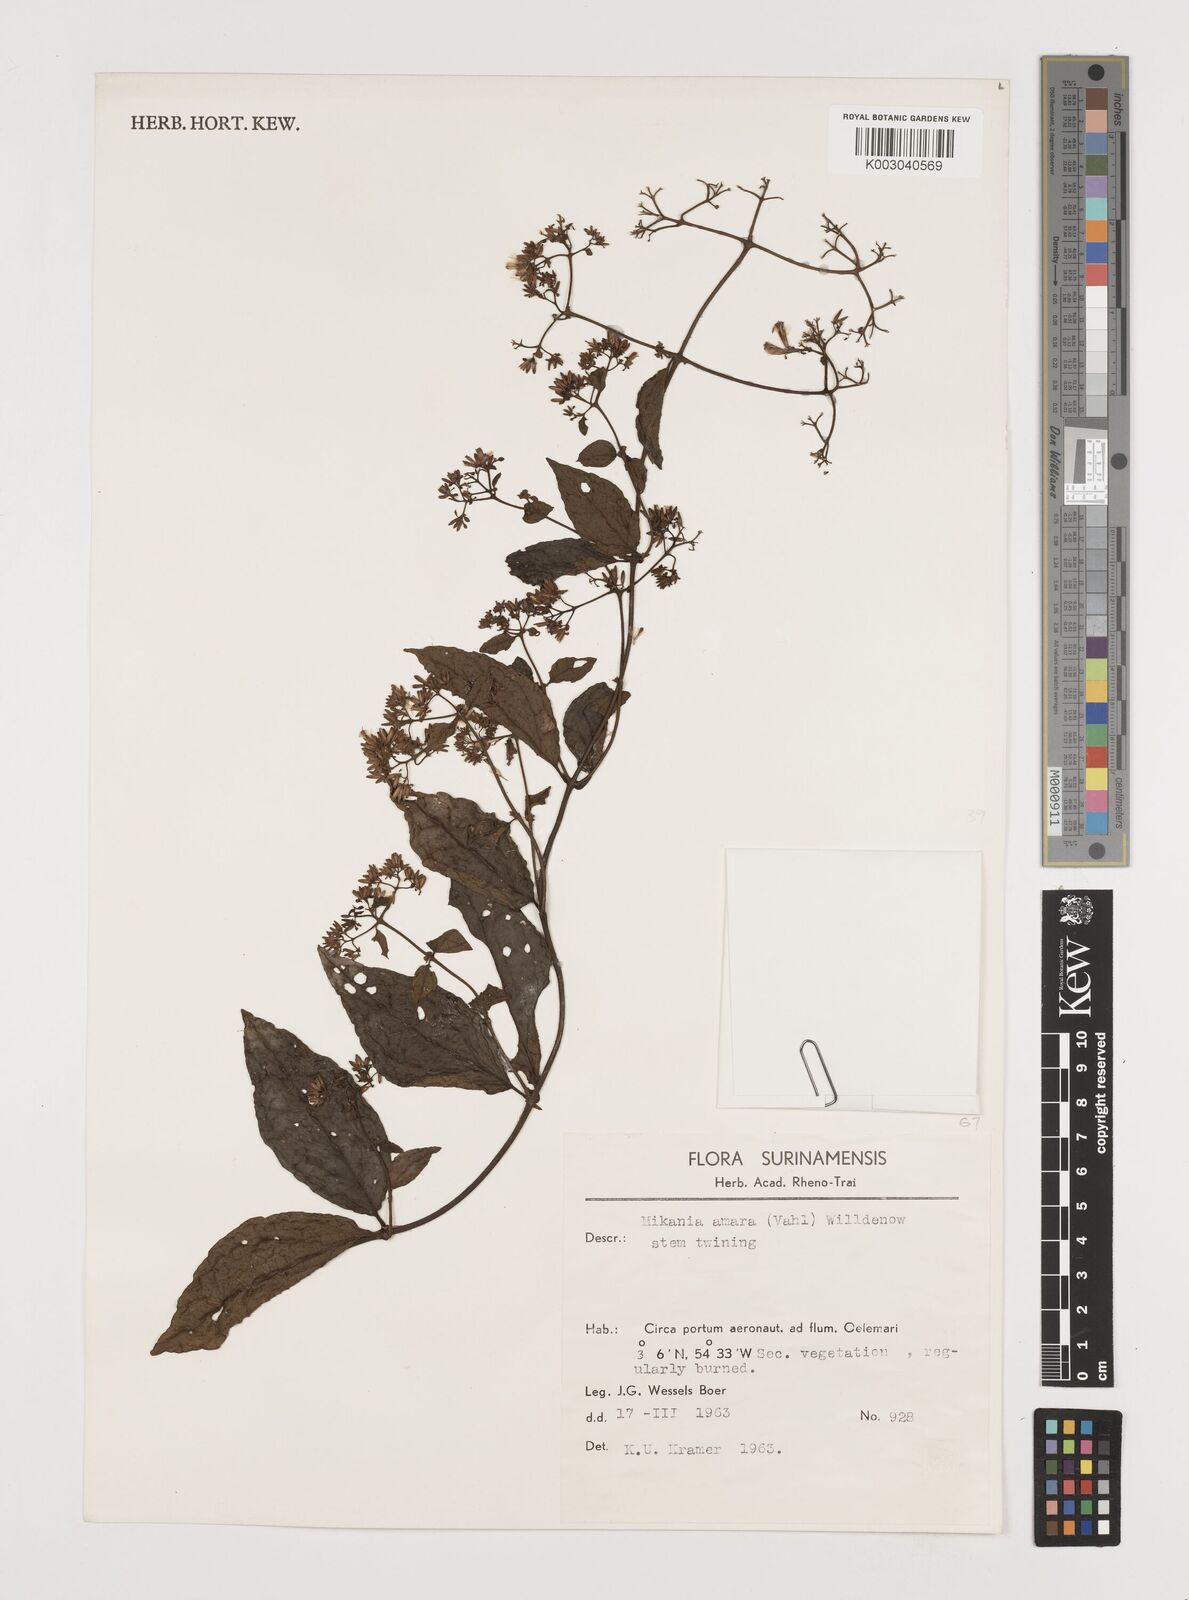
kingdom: Plantae
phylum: Tracheophyta
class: Magnoliopsida
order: Asterales
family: Asteraceae
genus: Mikania
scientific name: Mikania parviflora
